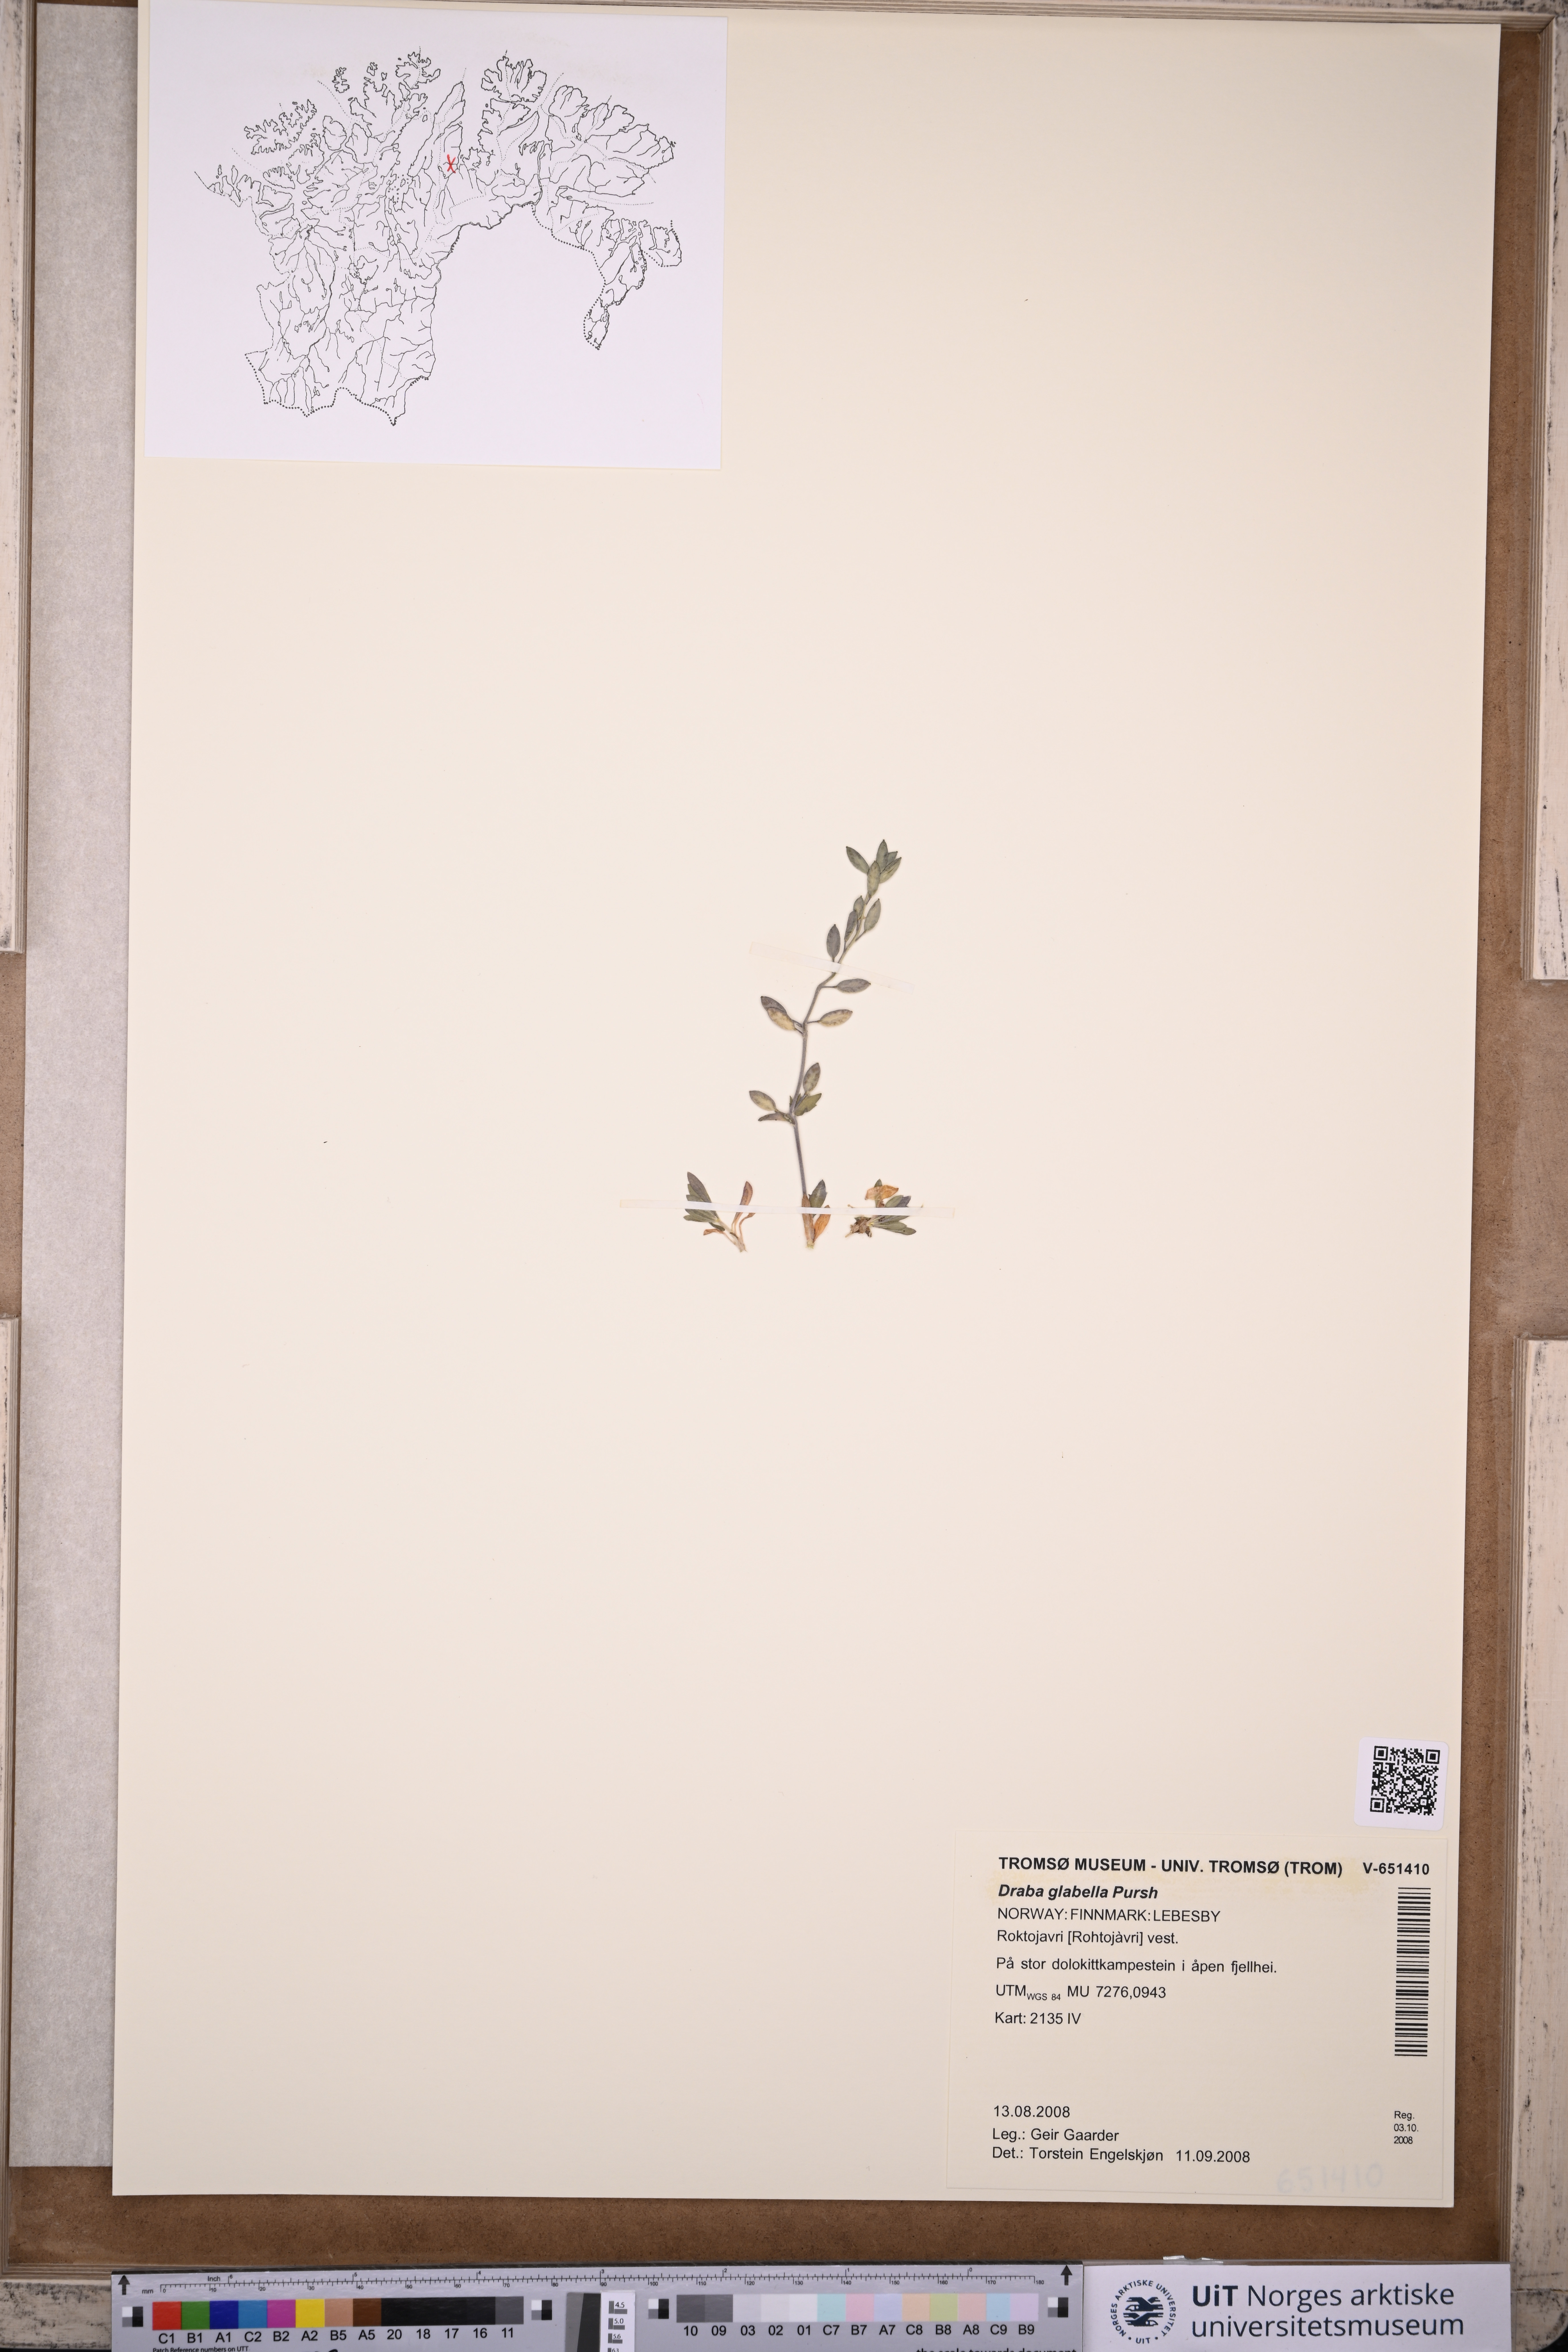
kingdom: Plantae
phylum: Tracheophyta
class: Magnoliopsida
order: Brassicales
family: Brassicaceae
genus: Draba
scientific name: Draba glabella
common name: Glaucous draba
